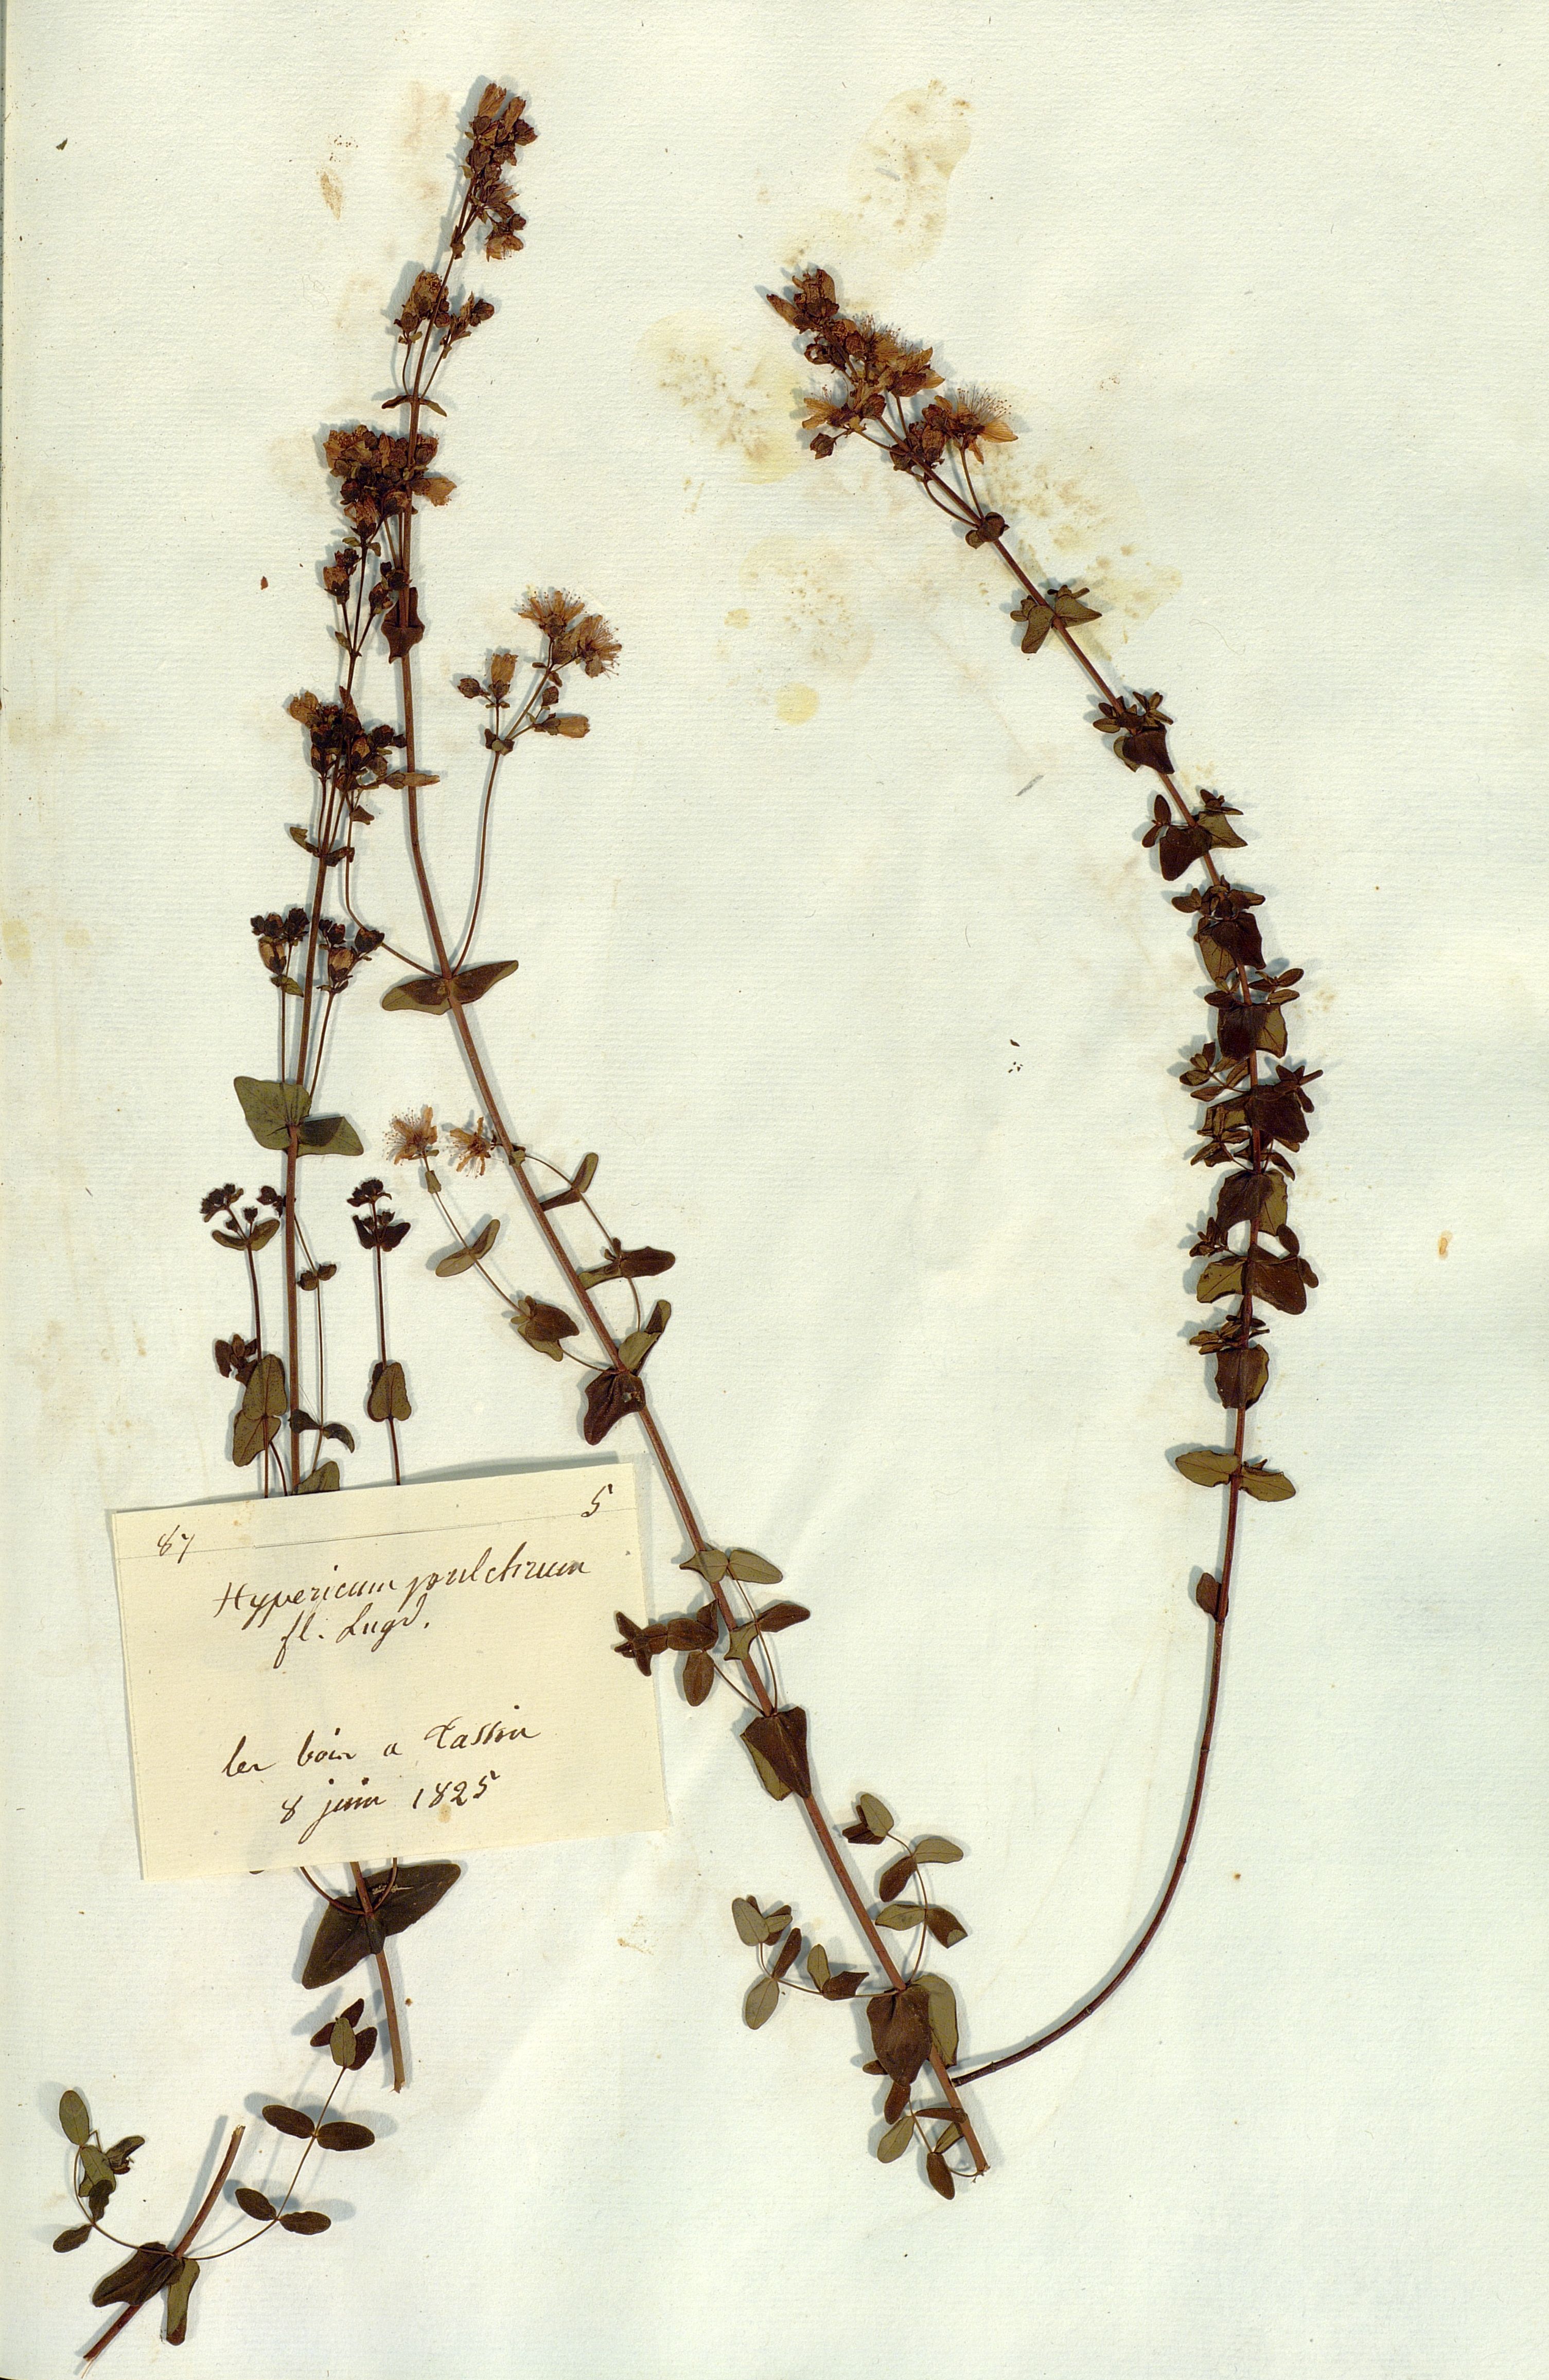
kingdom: Plantae
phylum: Tracheophyta
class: Magnoliopsida
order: Malpighiales
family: Hypericaceae
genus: Hypericum
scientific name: Hypericum pulchrum
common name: Slender st. john's-wort
